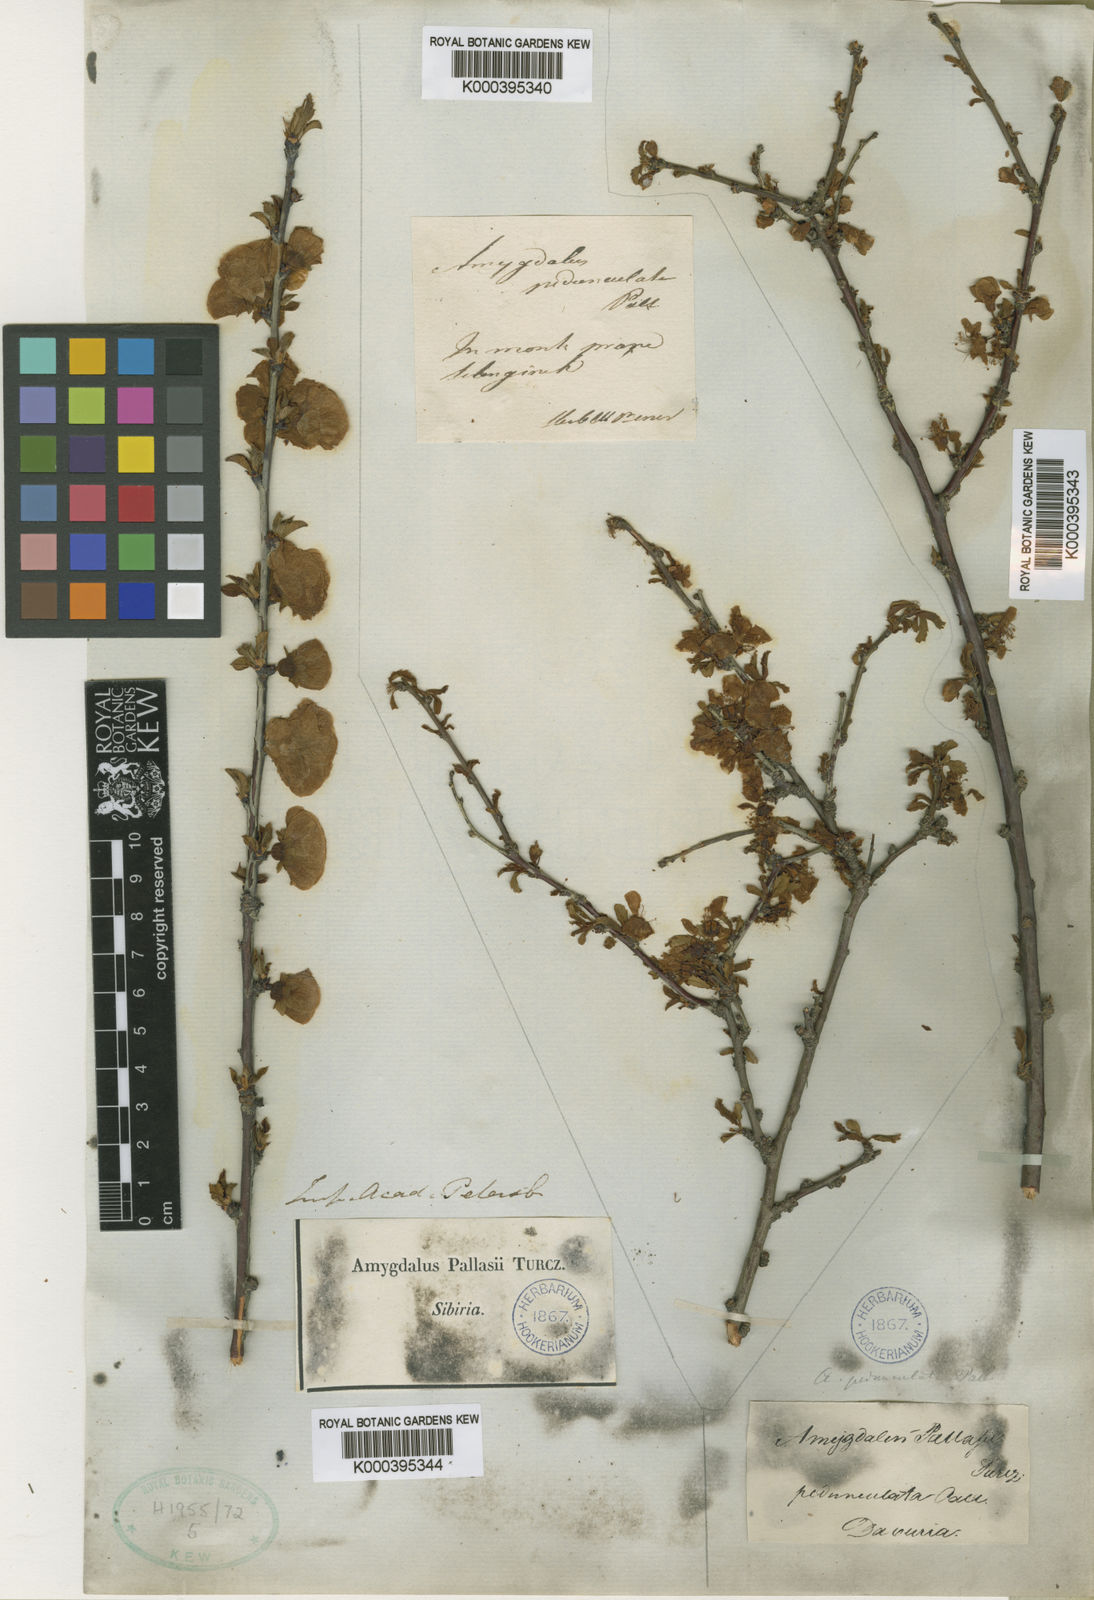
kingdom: Plantae
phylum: Tracheophyta
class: Magnoliopsida
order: Rosales
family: Rosaceae
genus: Prunus
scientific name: Prunus
